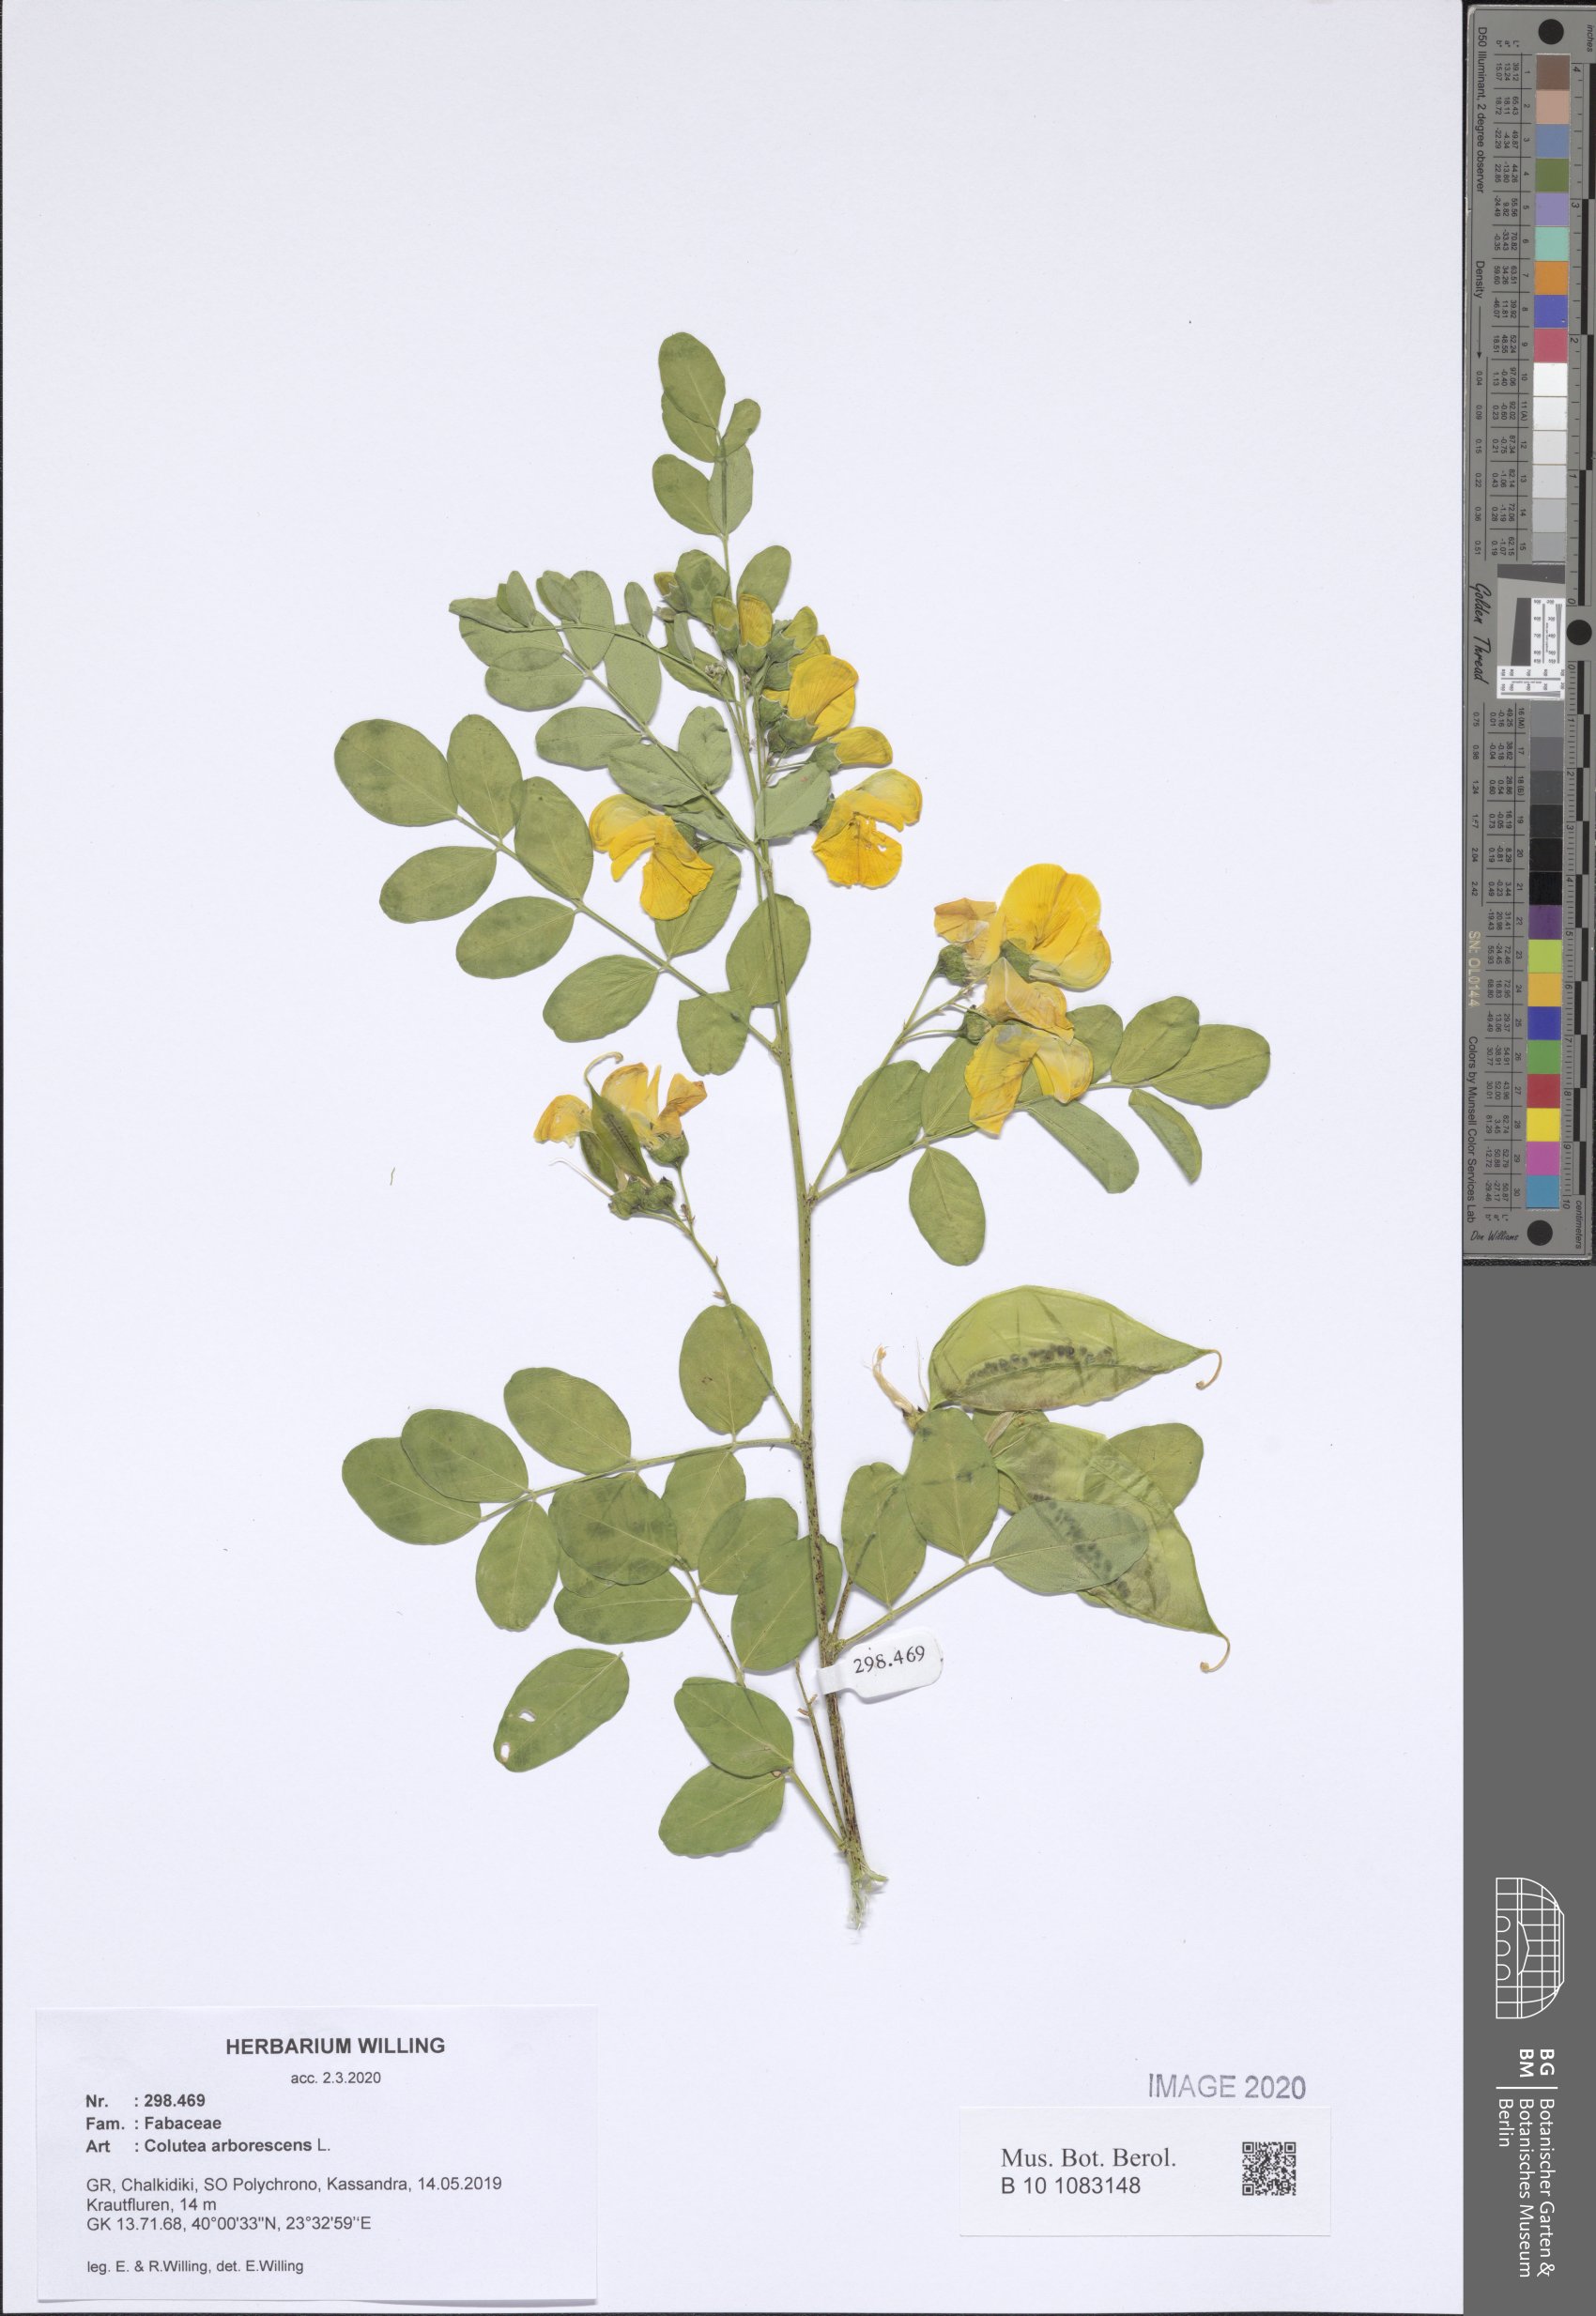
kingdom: Plantae
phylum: Tracheophyta
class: Magnoliopsida
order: Fabales
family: Fabaceae
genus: Colutea
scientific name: Colutea arborescens
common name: Bladder-senna
